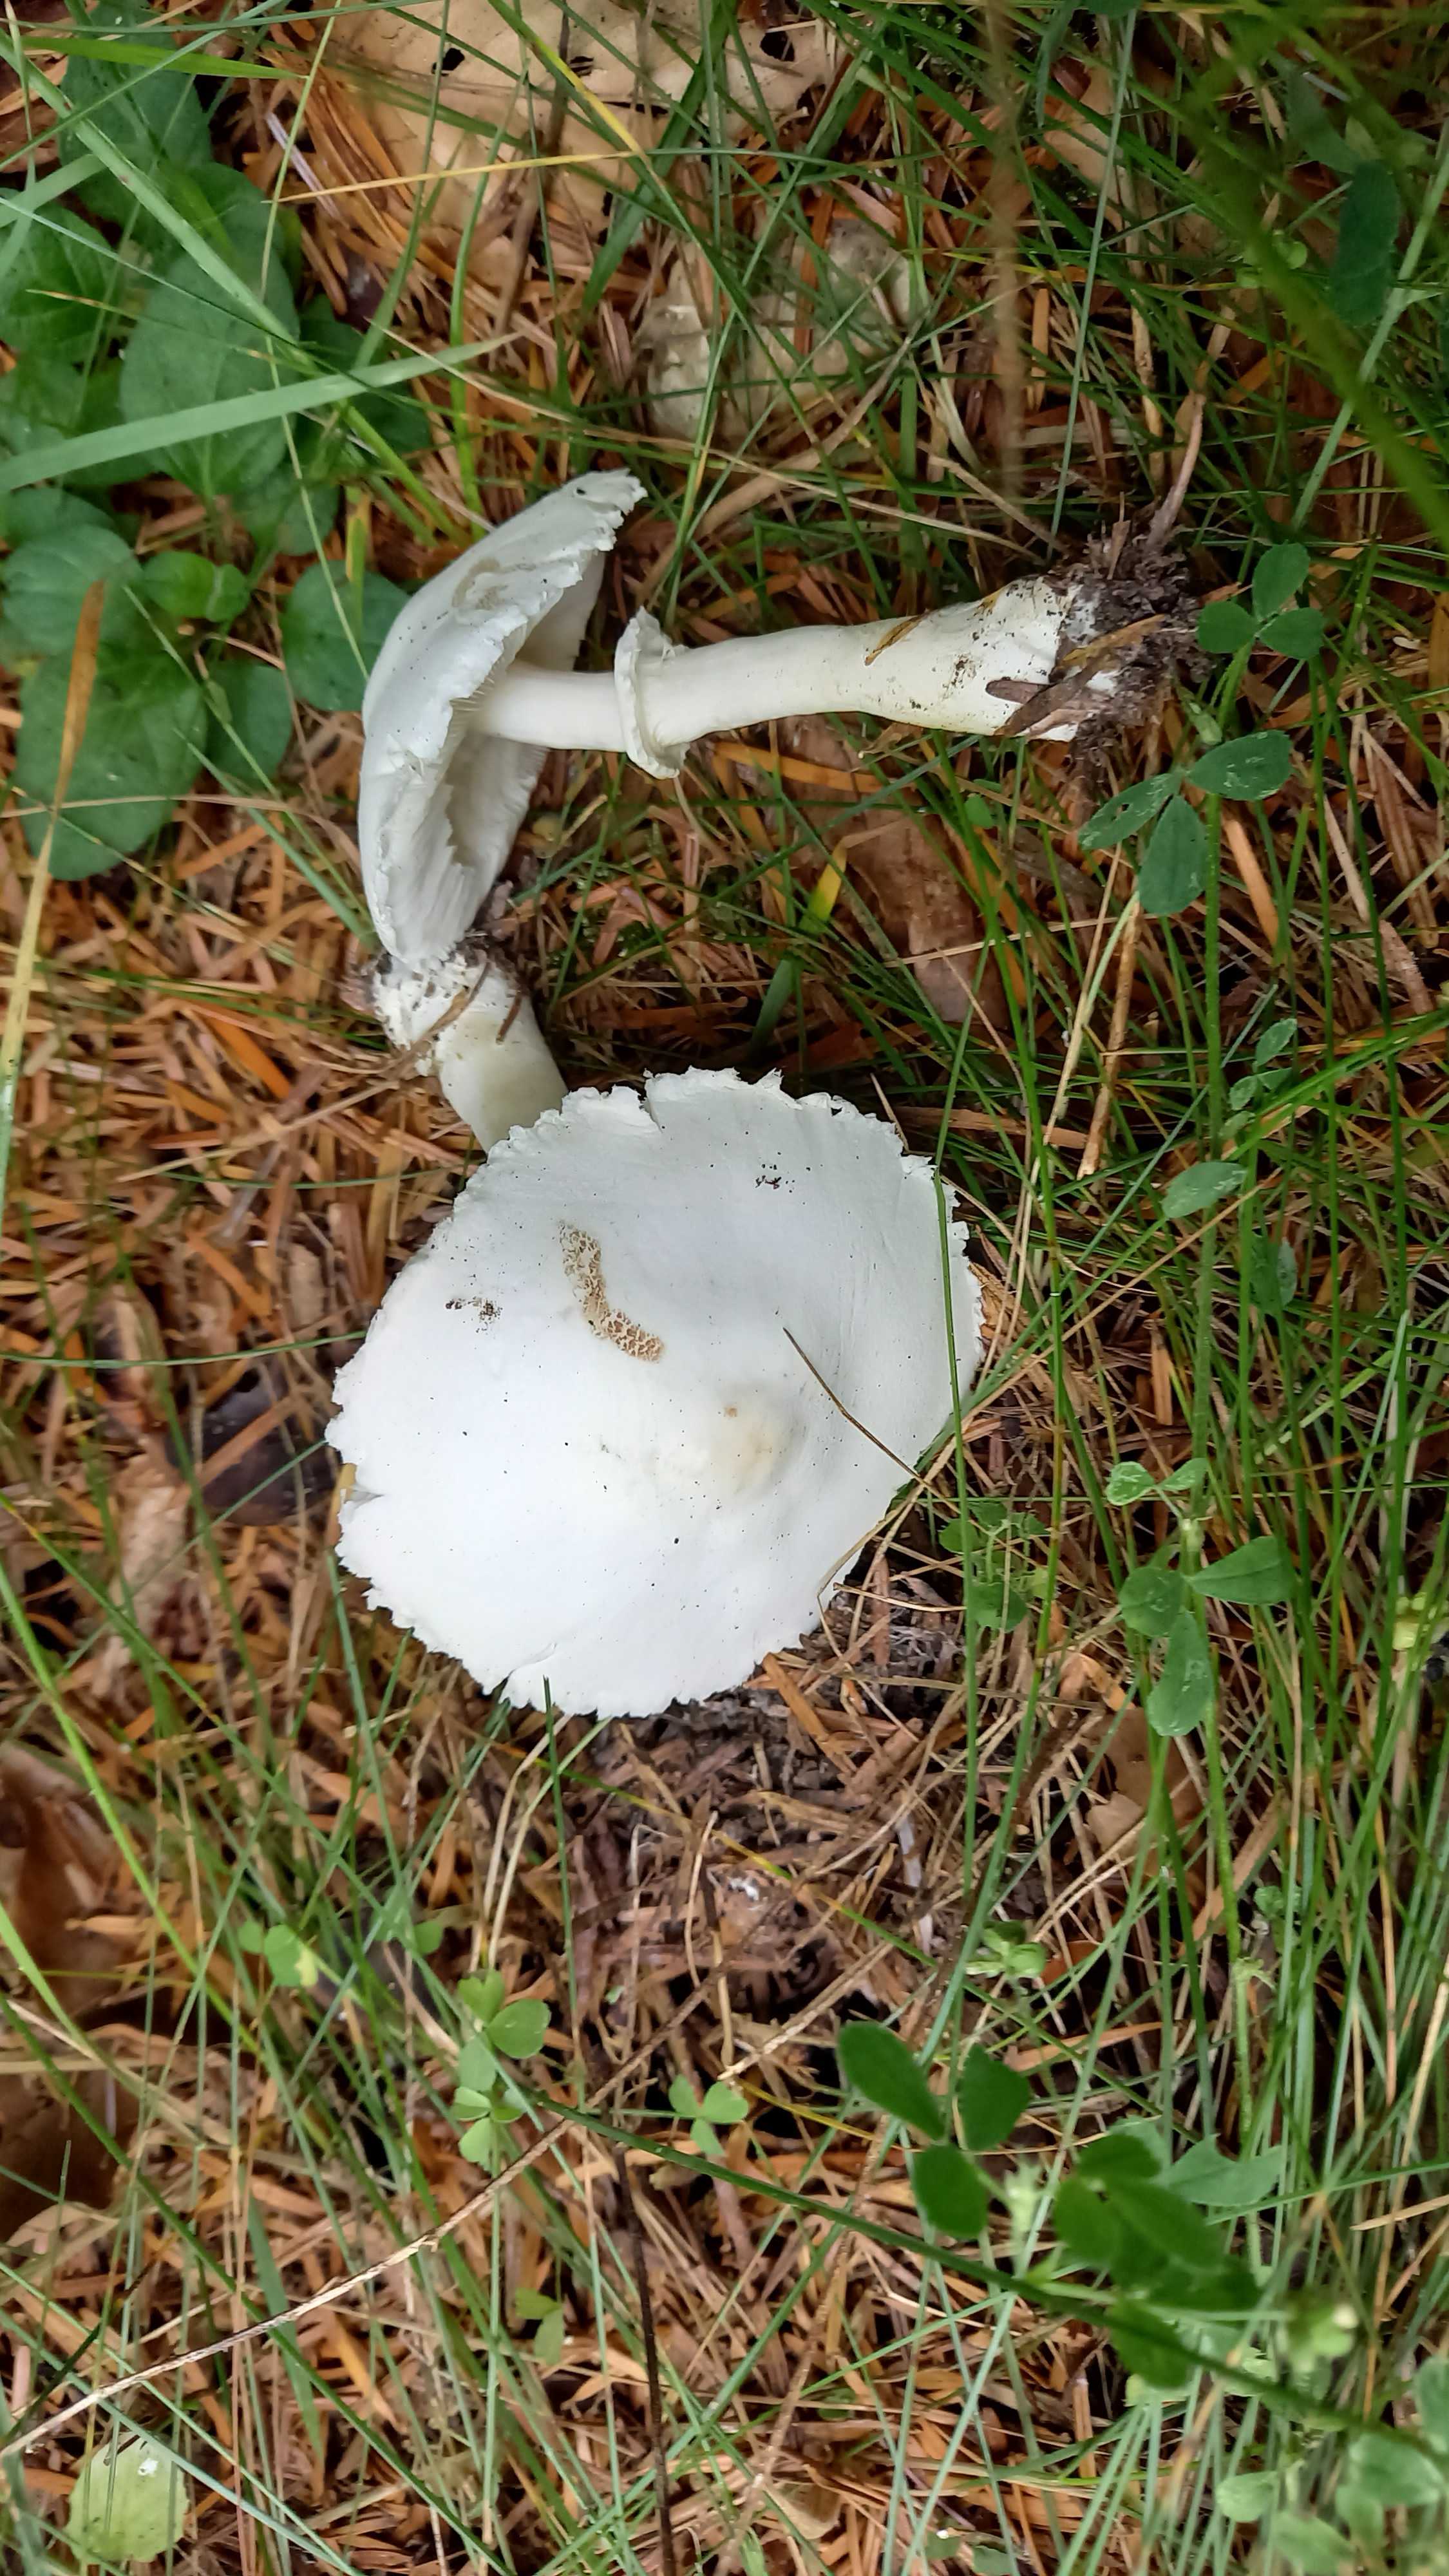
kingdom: Fungi
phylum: Basidiomycota
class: Agaricomycetes
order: Agaricales
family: Agaricaceae
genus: Leucoagaricus
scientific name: Leucoagaricus leucothites
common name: rosabladet silkehat
